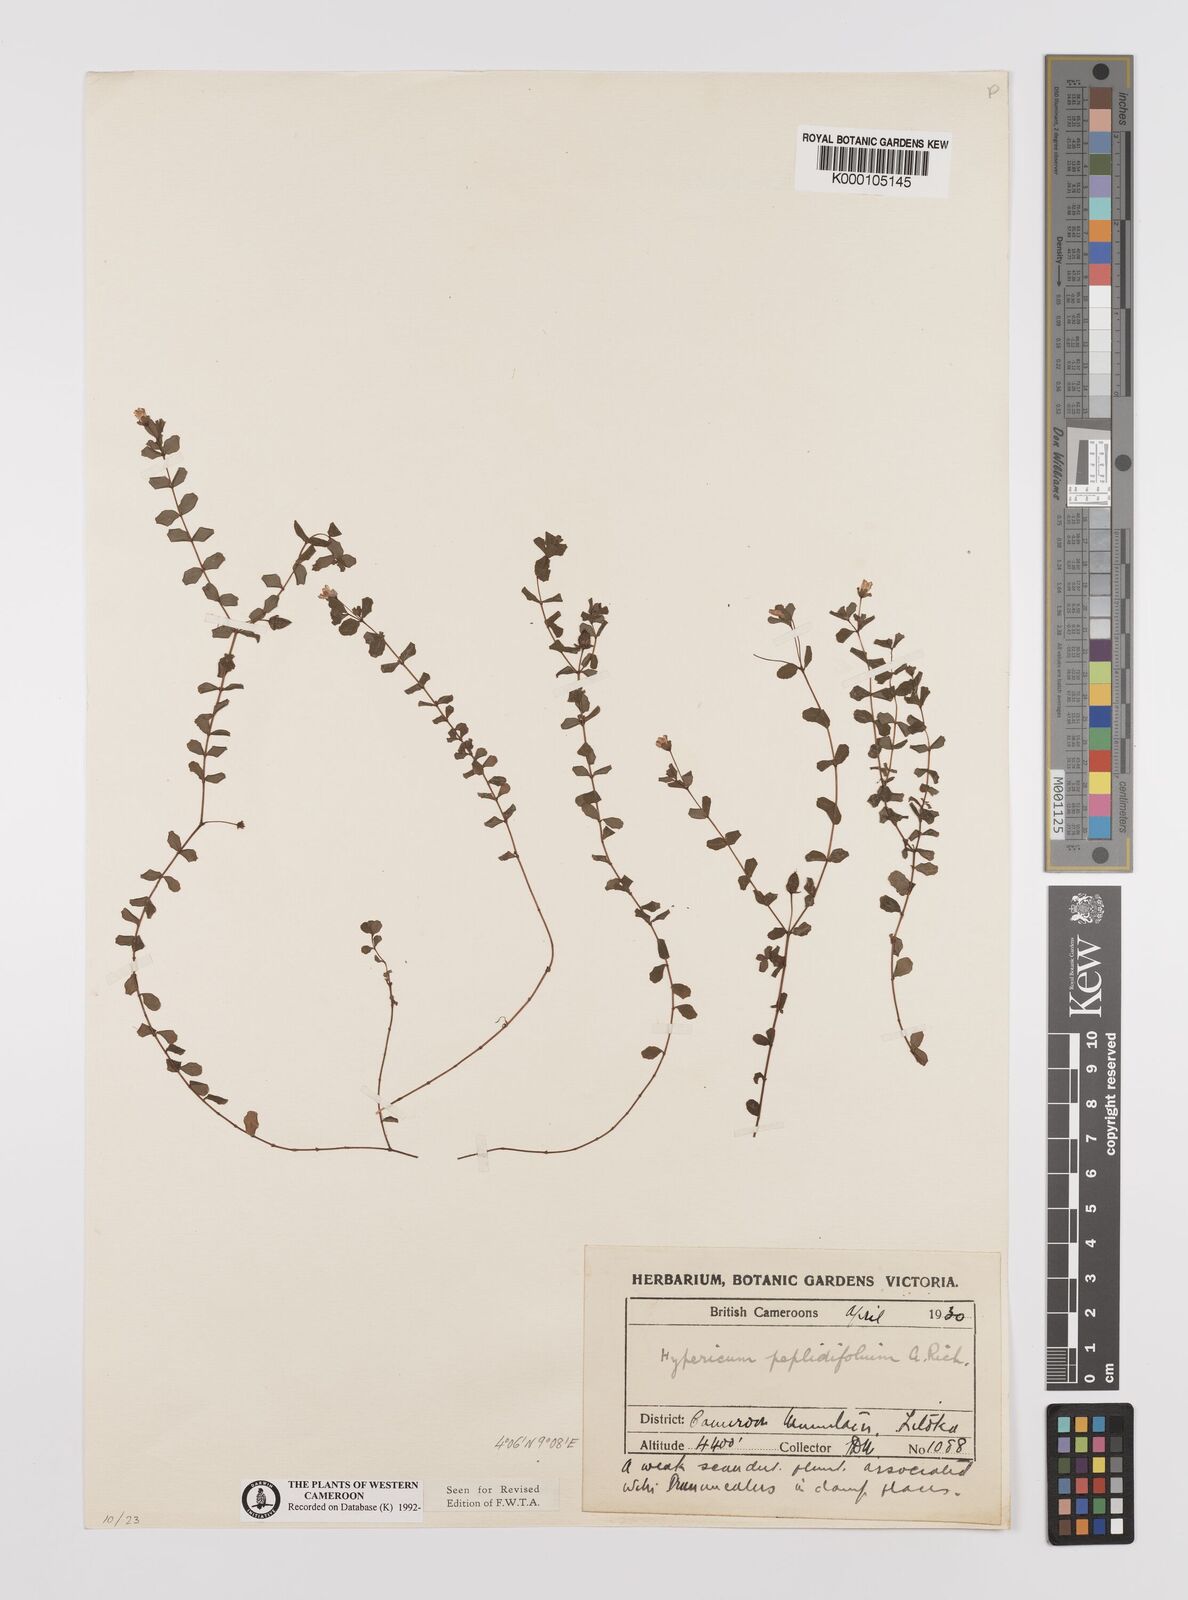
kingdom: Plantae
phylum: Tracheophyta
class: Magnoliopsida
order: Malpighiales
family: Hypericaceae
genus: Hypericum
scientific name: Hypericum peplidifolium
